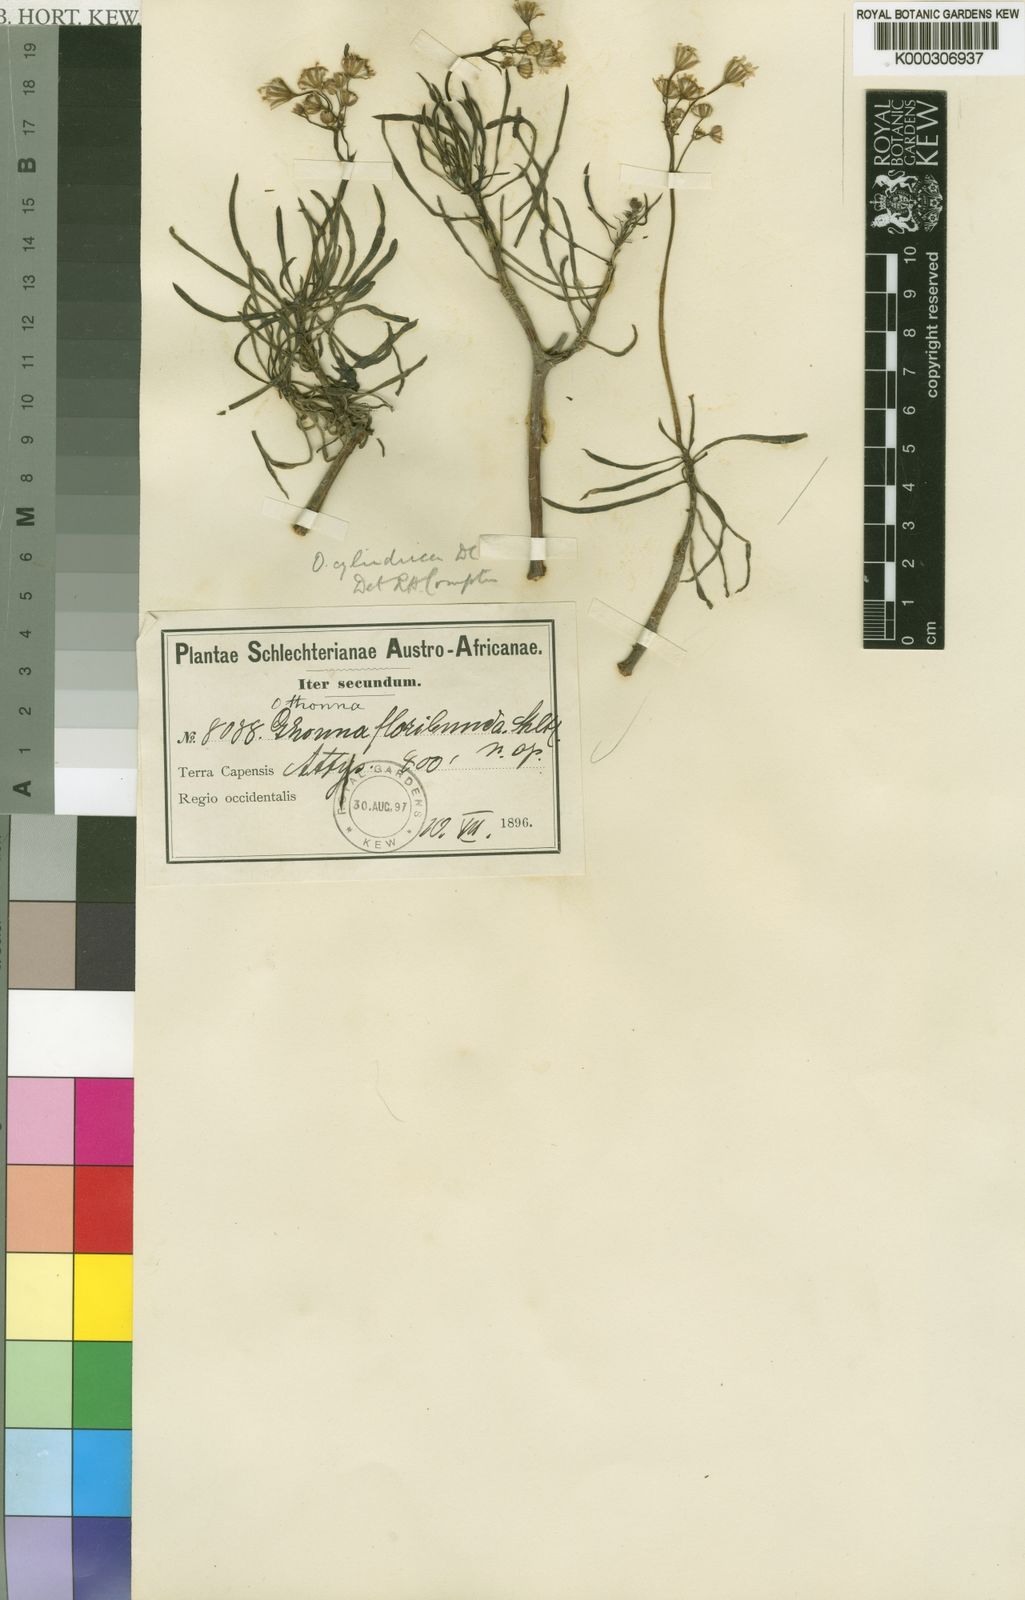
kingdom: Plantae
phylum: Tracheophyta
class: Magnoliopsida
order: Asterales
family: Asteraceae
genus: Crassothonna
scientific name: Crassothonna floribunda
